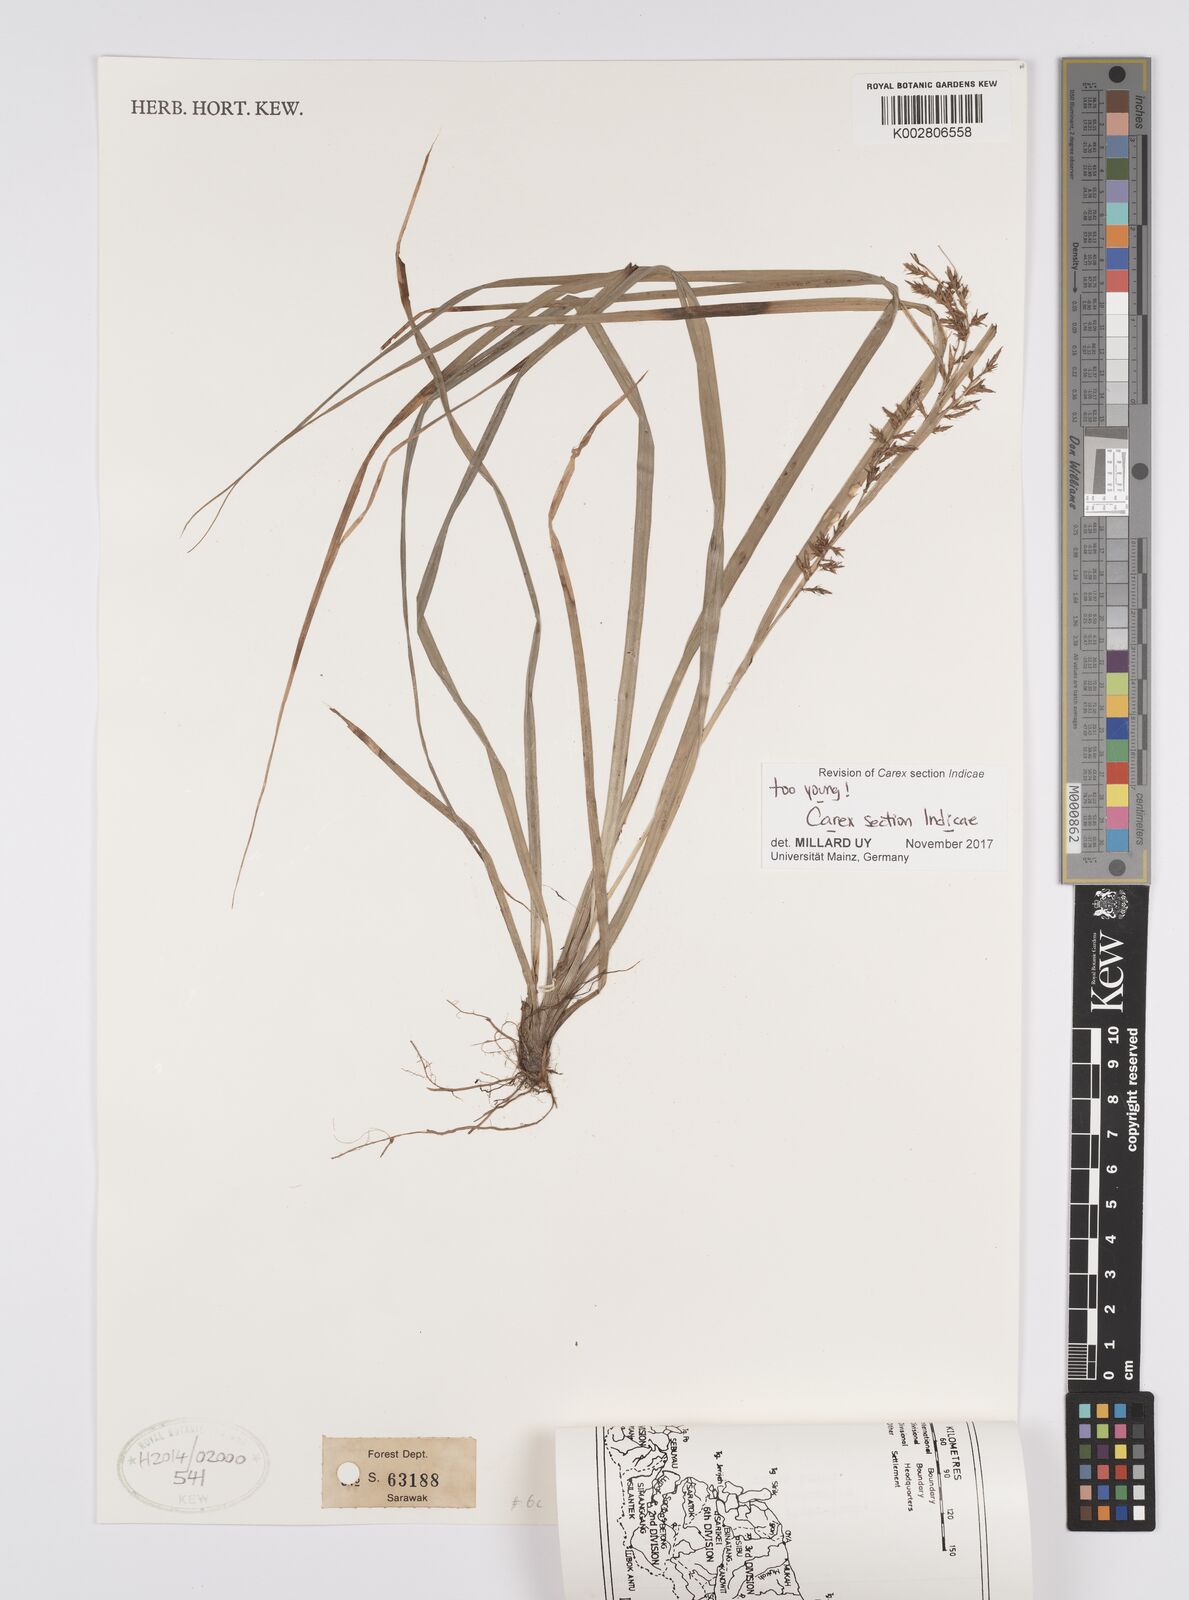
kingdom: Plantae
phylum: Tracheophyta
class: Liliopsida
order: Poales
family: Cyperaceae
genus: Carex
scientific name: Carex
